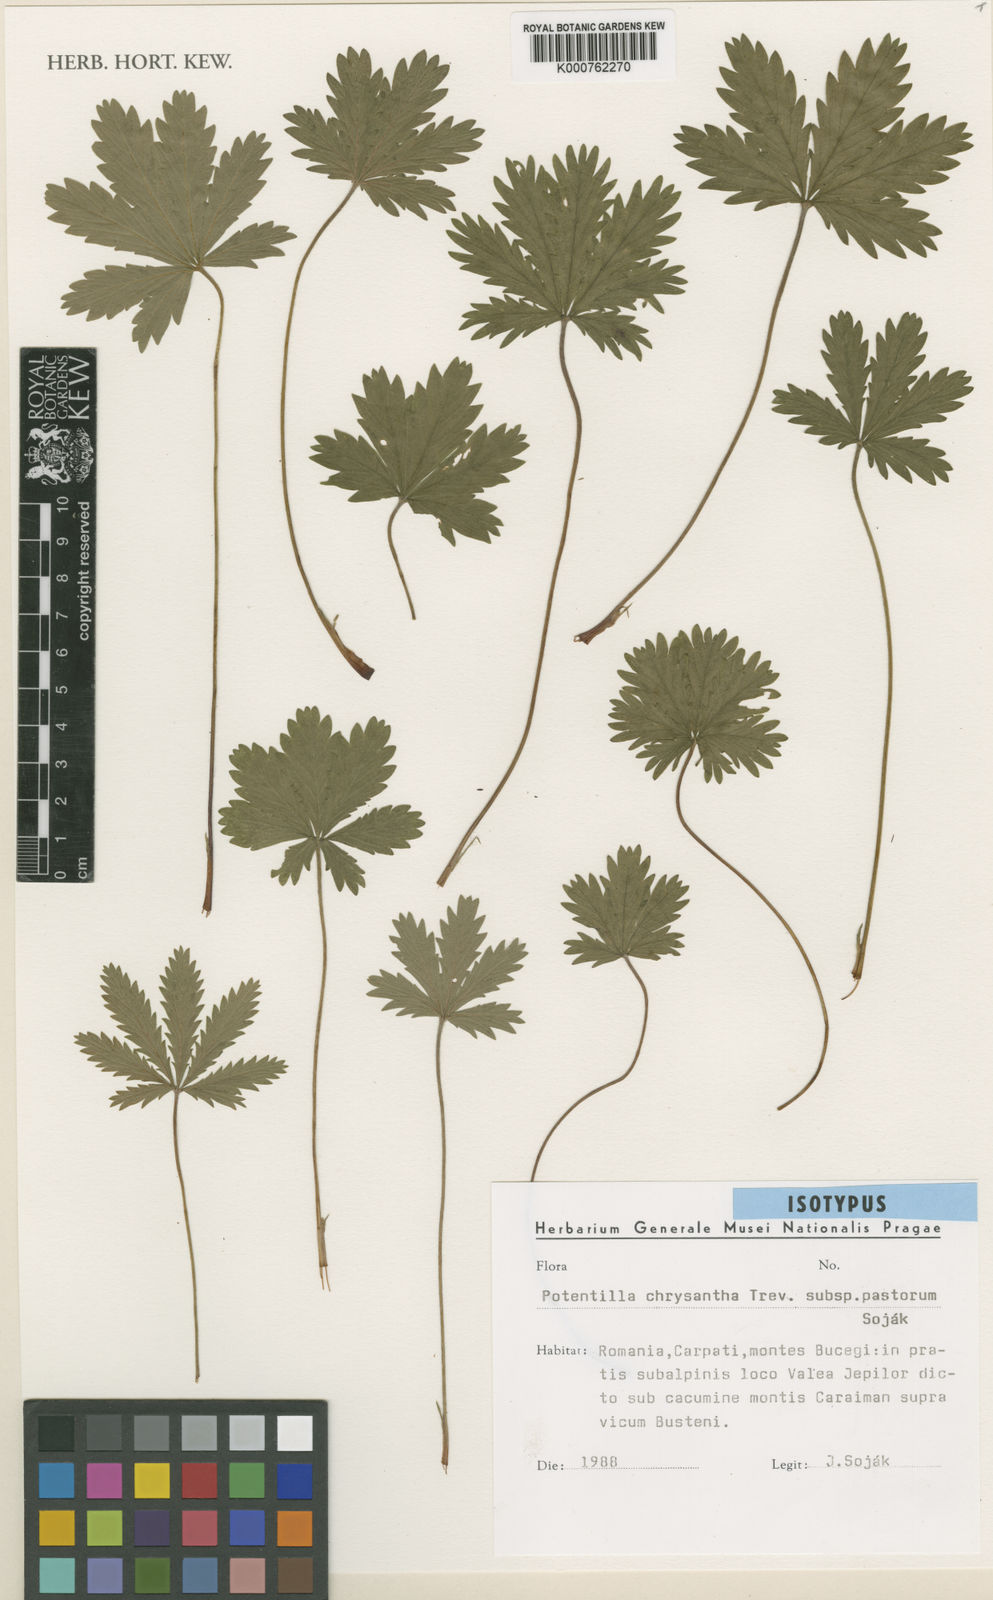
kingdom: Plantae
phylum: Tracheophyta
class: Magnoliopsida
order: Rosales
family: Rosaceae
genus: Potentilla
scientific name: Potentilla chrysantha
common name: Thuringian cinquefoil
